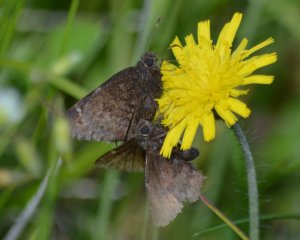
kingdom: Animalia
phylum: Arthropoda
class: Insecta
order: Lepidoptera
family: Hesperiidae
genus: Autochton
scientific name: Autochton
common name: Northern Cloudywing
